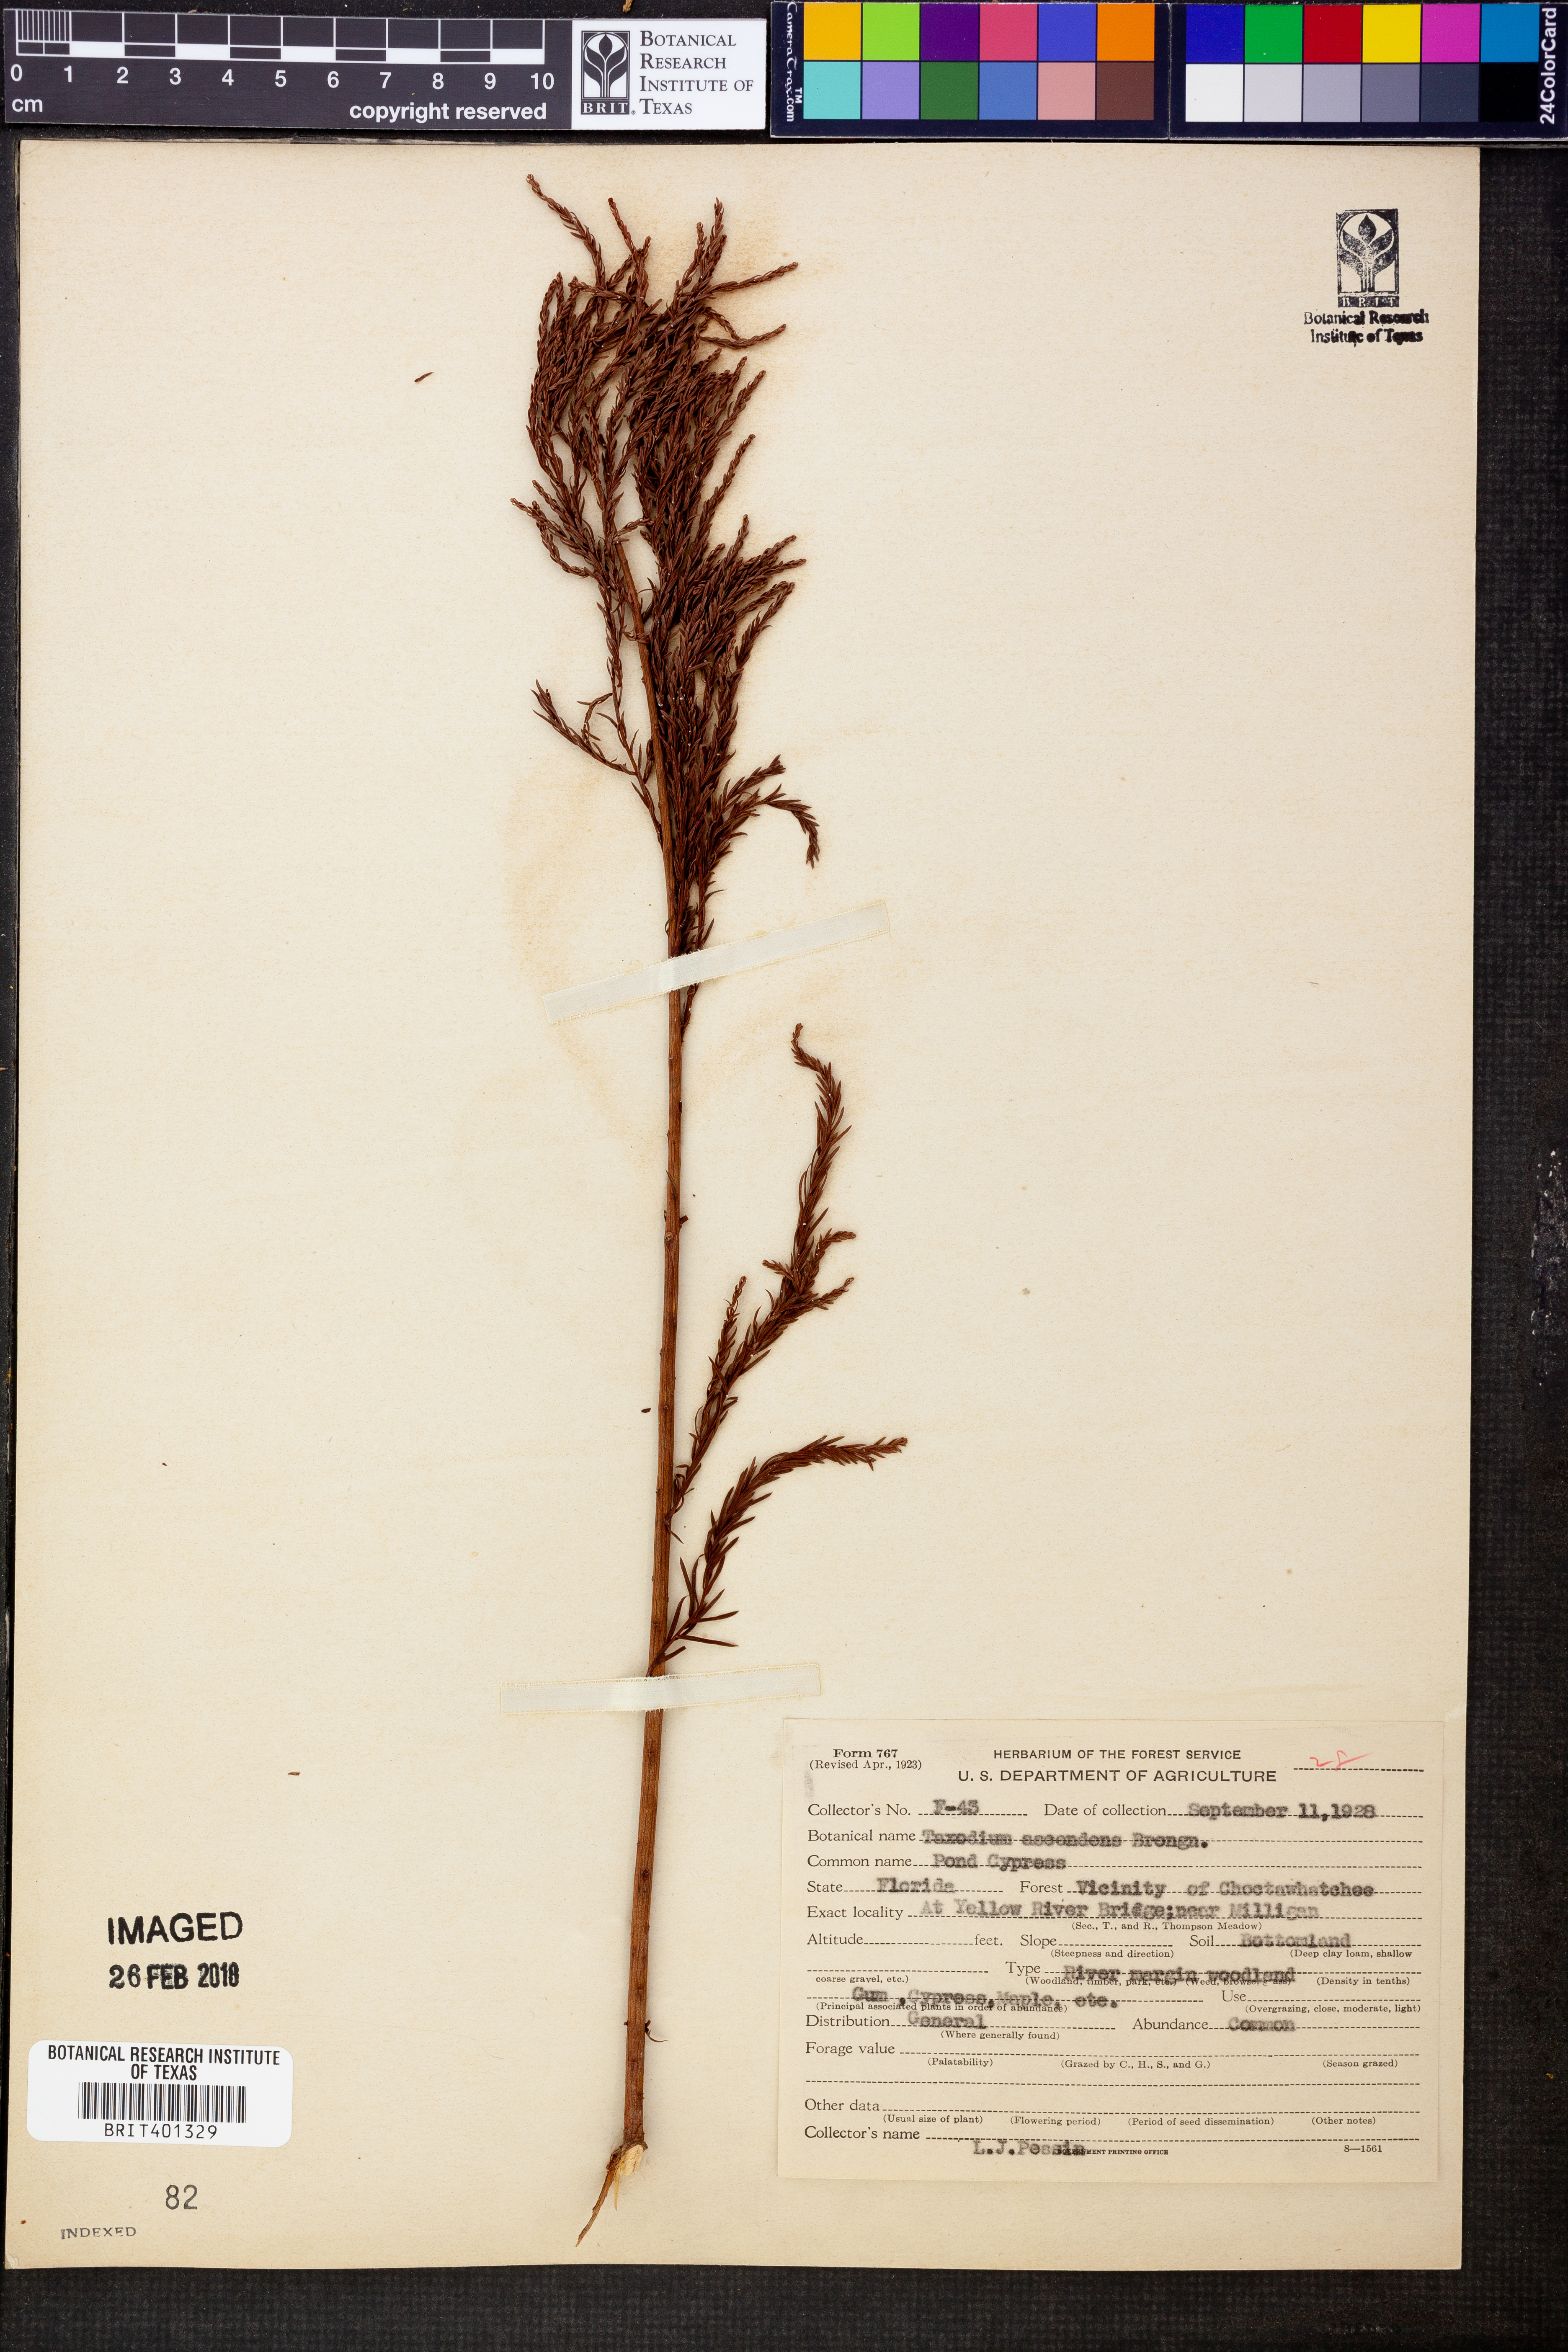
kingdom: Plantae
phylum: Tracheophyta
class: Pinopsida
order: Pinales
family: Cupressaceae
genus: Taxodium
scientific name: Taxodium distichum
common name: Bald cypress
